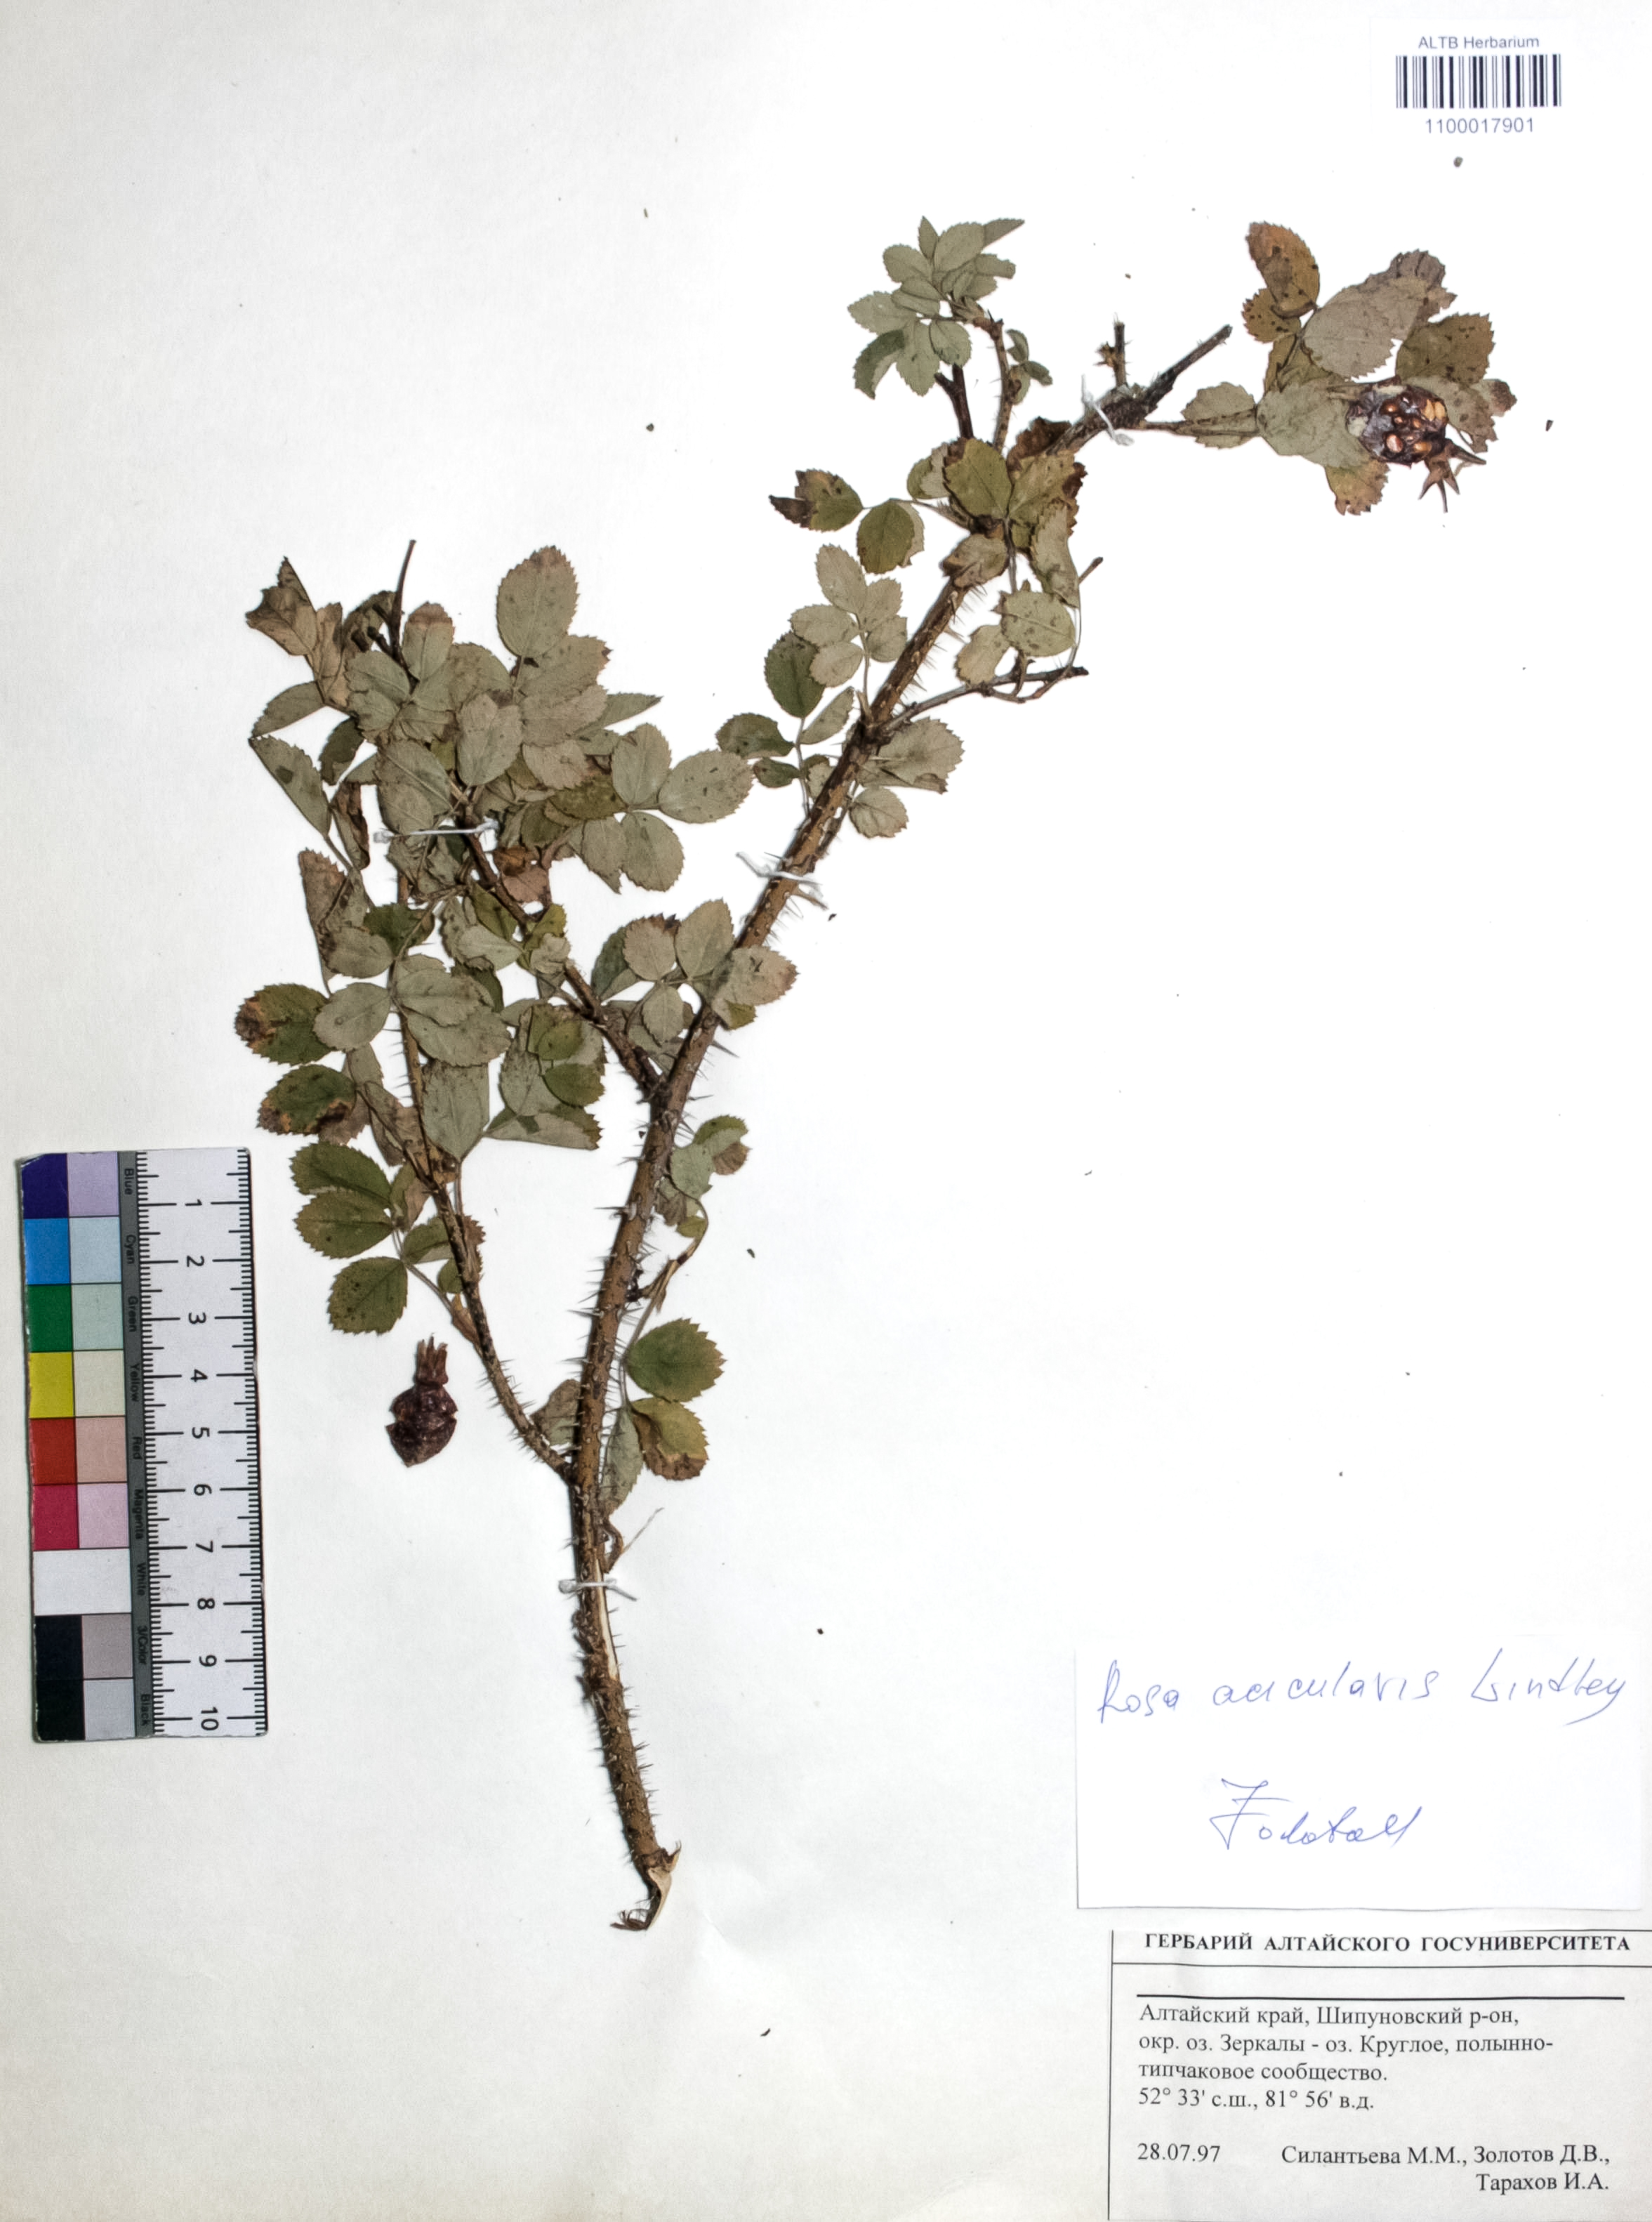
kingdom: Plantae
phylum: Tracheophyta
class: Magnoliopsida
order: Rosales
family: Rosaceae
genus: Rosa
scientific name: Rosa acicularis
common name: Prickly rose
